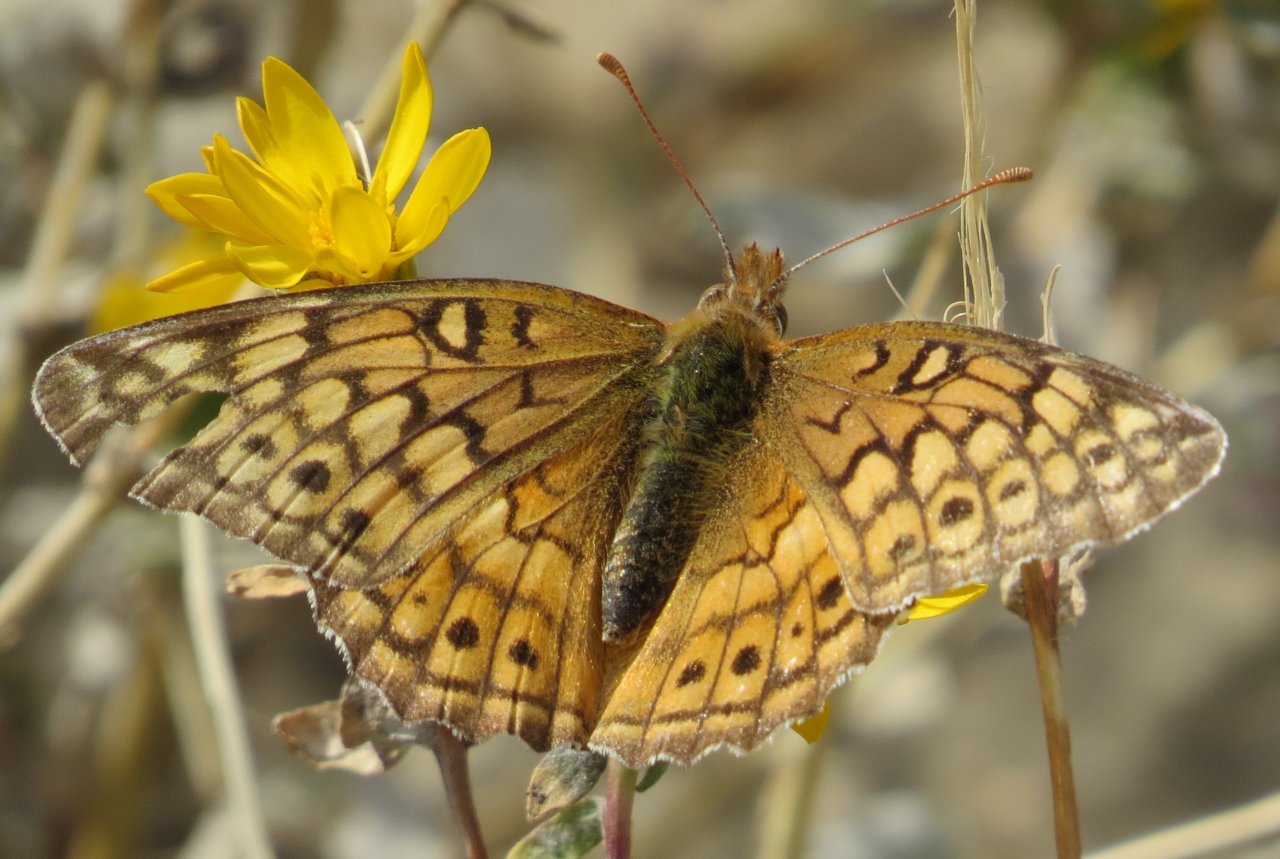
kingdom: Animalia
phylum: Arthropoda
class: Insecta
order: Lepidoptera
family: Nymphalidae
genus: Euptoieta
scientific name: Euptoieta claudia
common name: Variegated Fritillary
